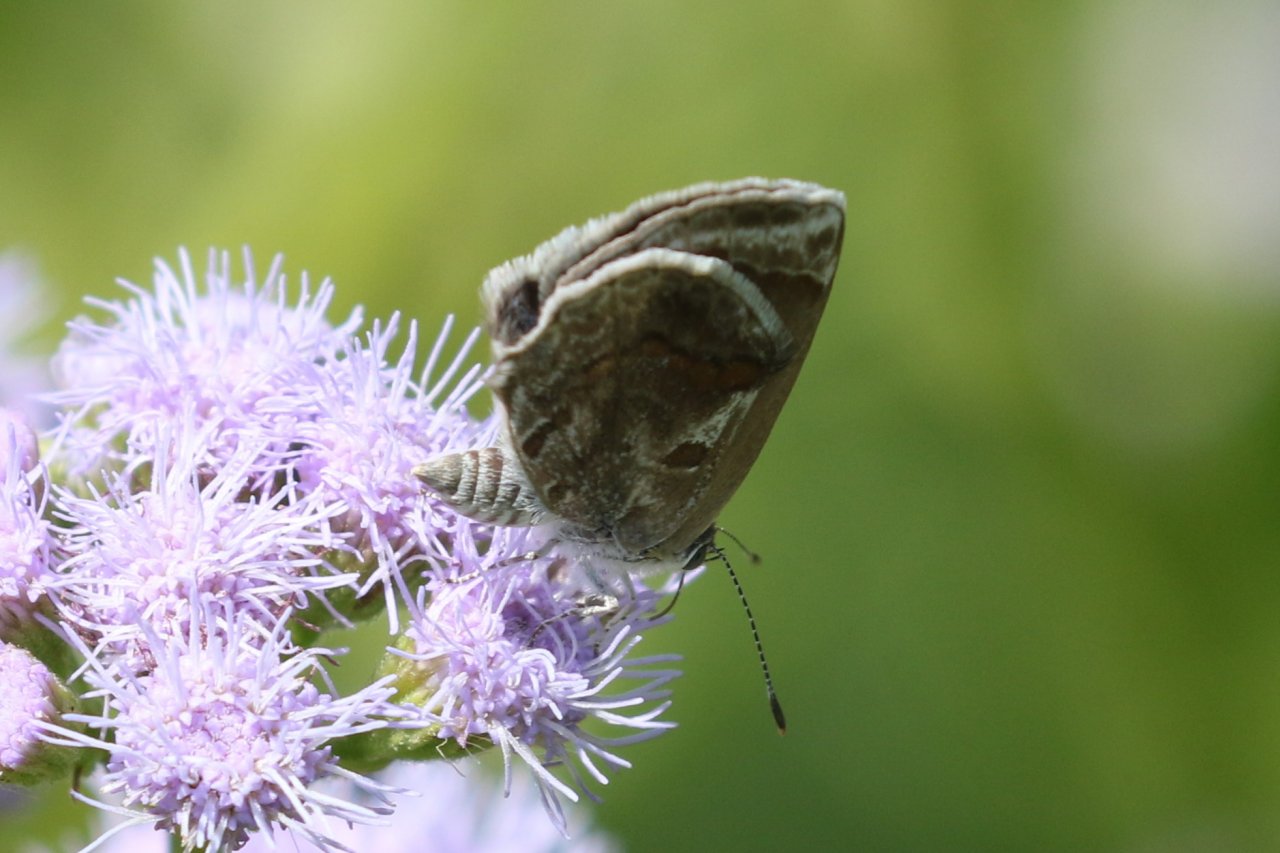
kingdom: Animalia
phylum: Arthropoda
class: Insecta
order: Lepidoptera
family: Lycaenidae
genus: Strymon
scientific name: Strymon bazochii
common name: Lantana Scrub-Hairstreak
